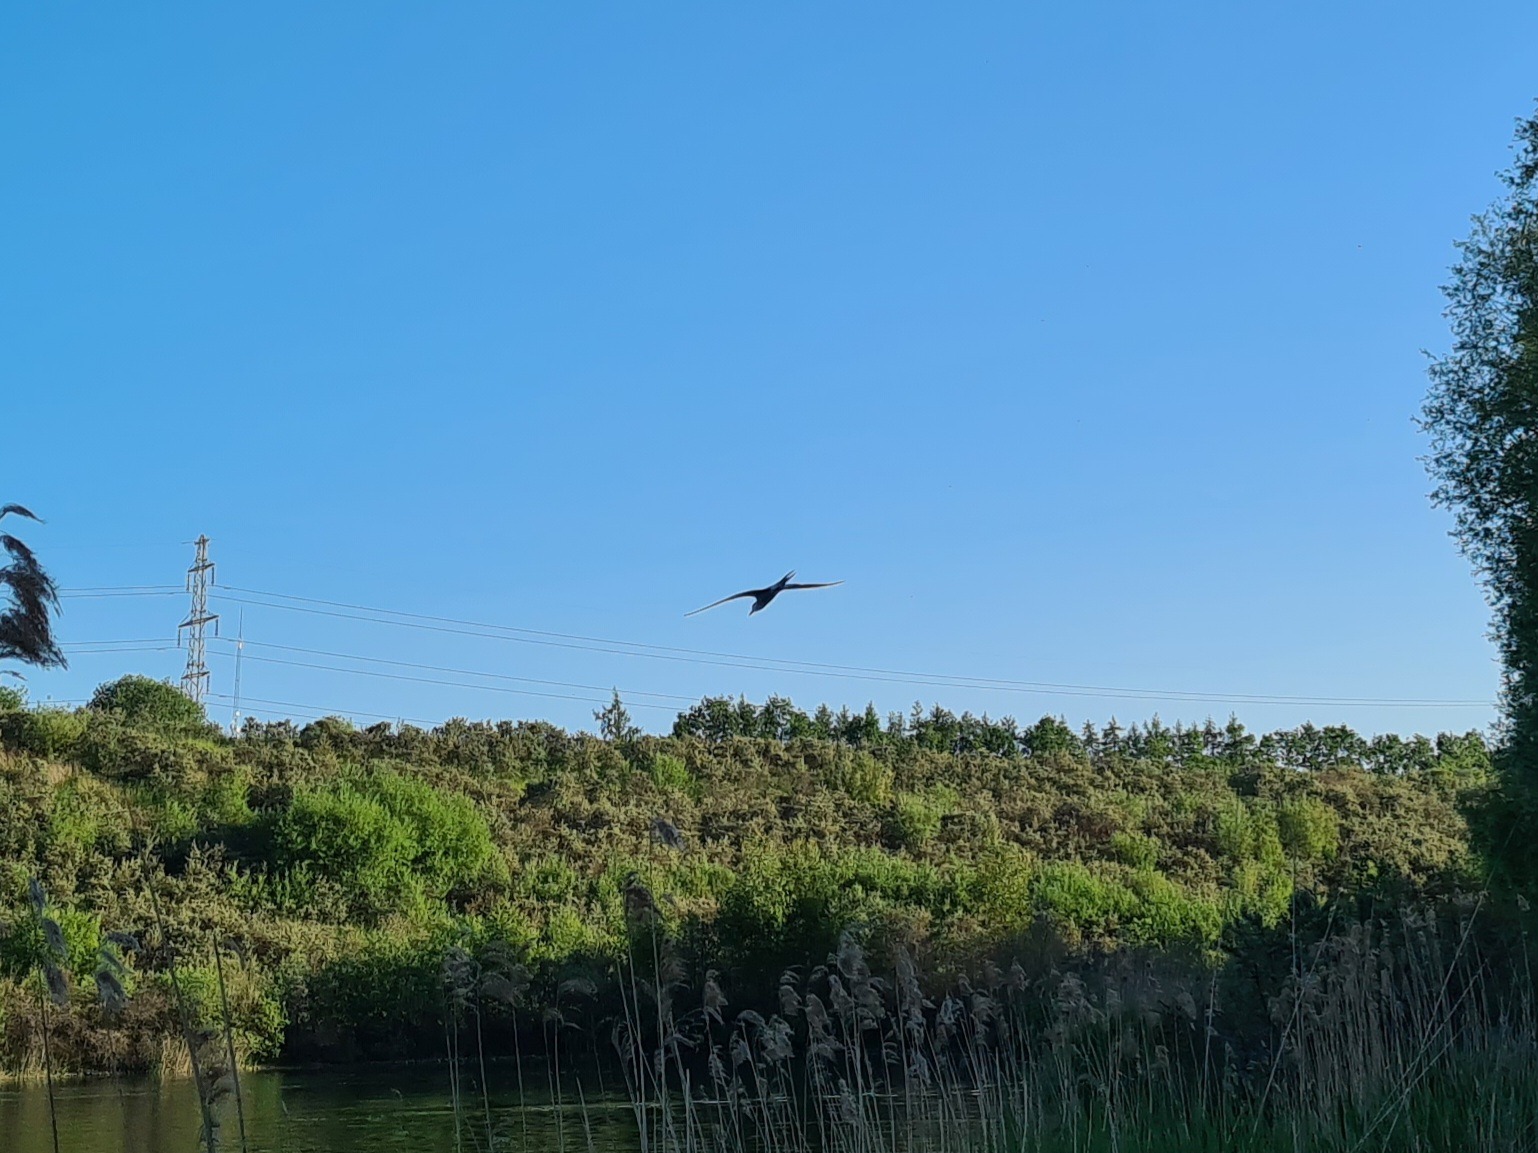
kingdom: Animalia
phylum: Chordata
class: Aves
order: Charadriiformes
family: Laridae
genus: Sterna
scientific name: Sterna hirundo
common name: Fjordterne
